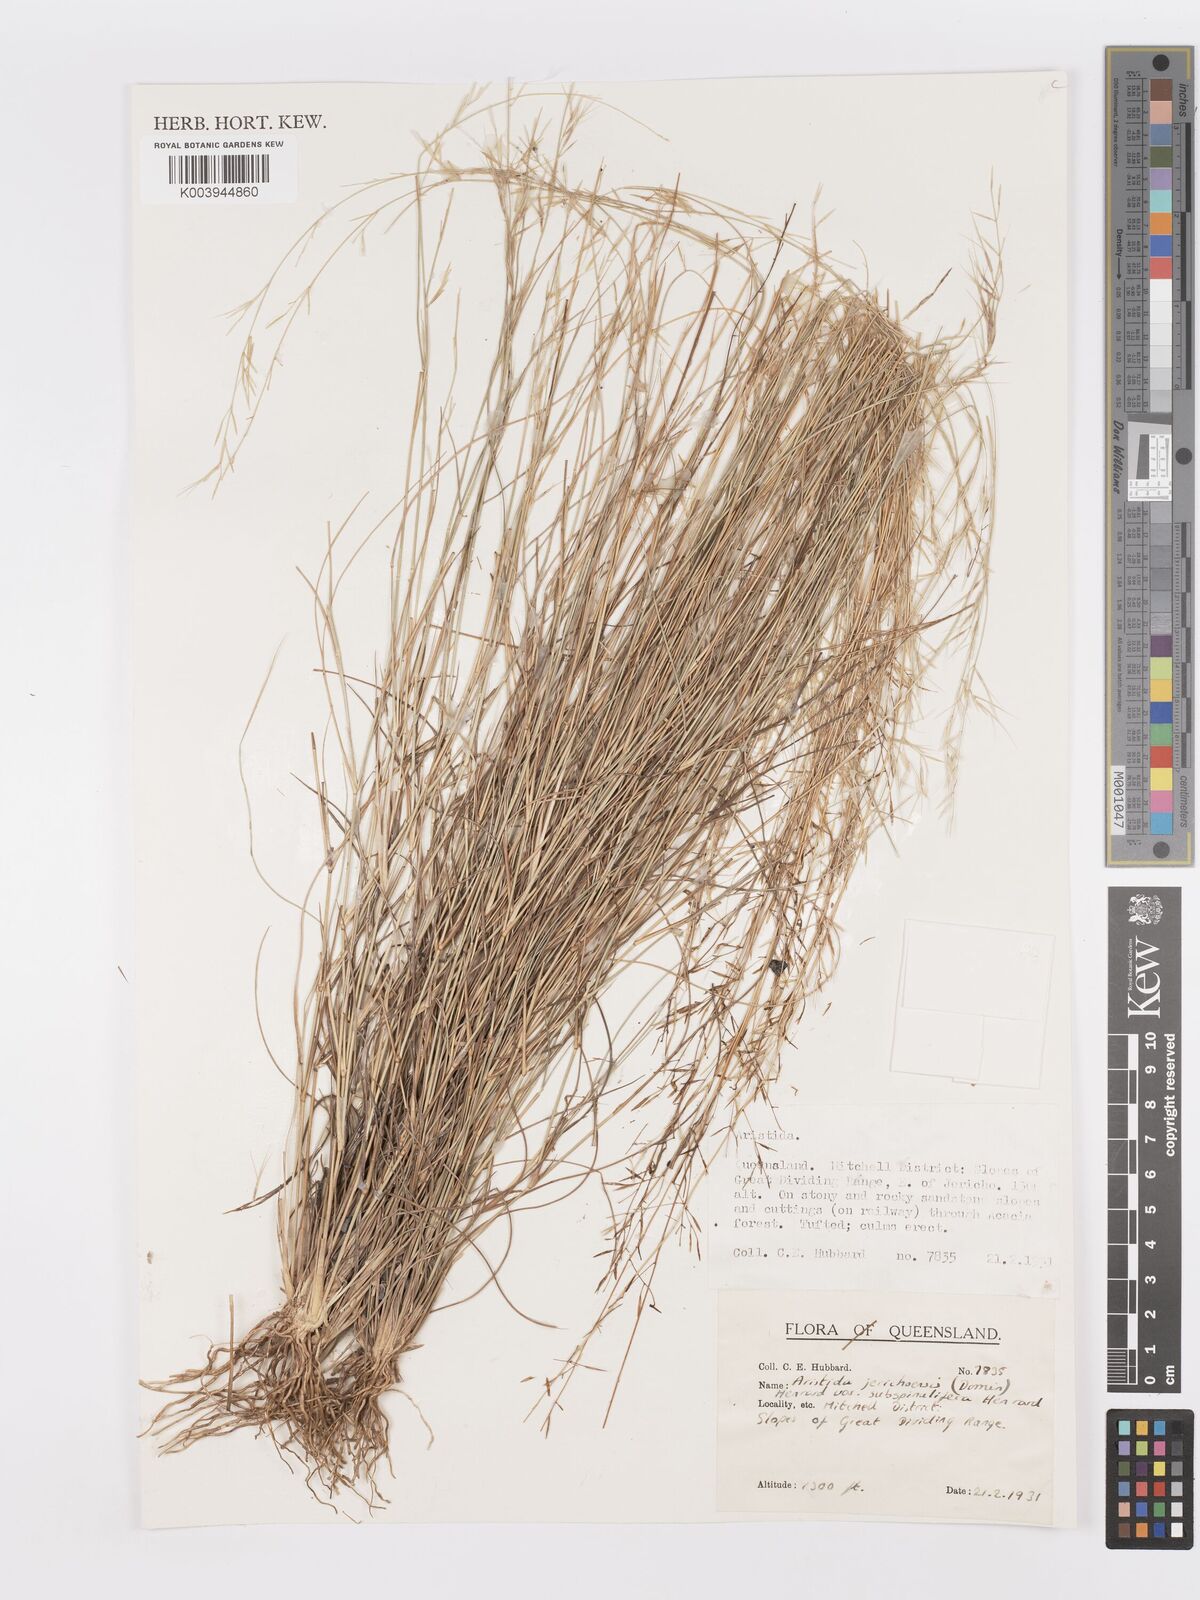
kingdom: Plantae
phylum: Tracheophyta
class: Liliopsida
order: Poales
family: Poaceae
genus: Aristida
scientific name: Aristida jerichoensis
